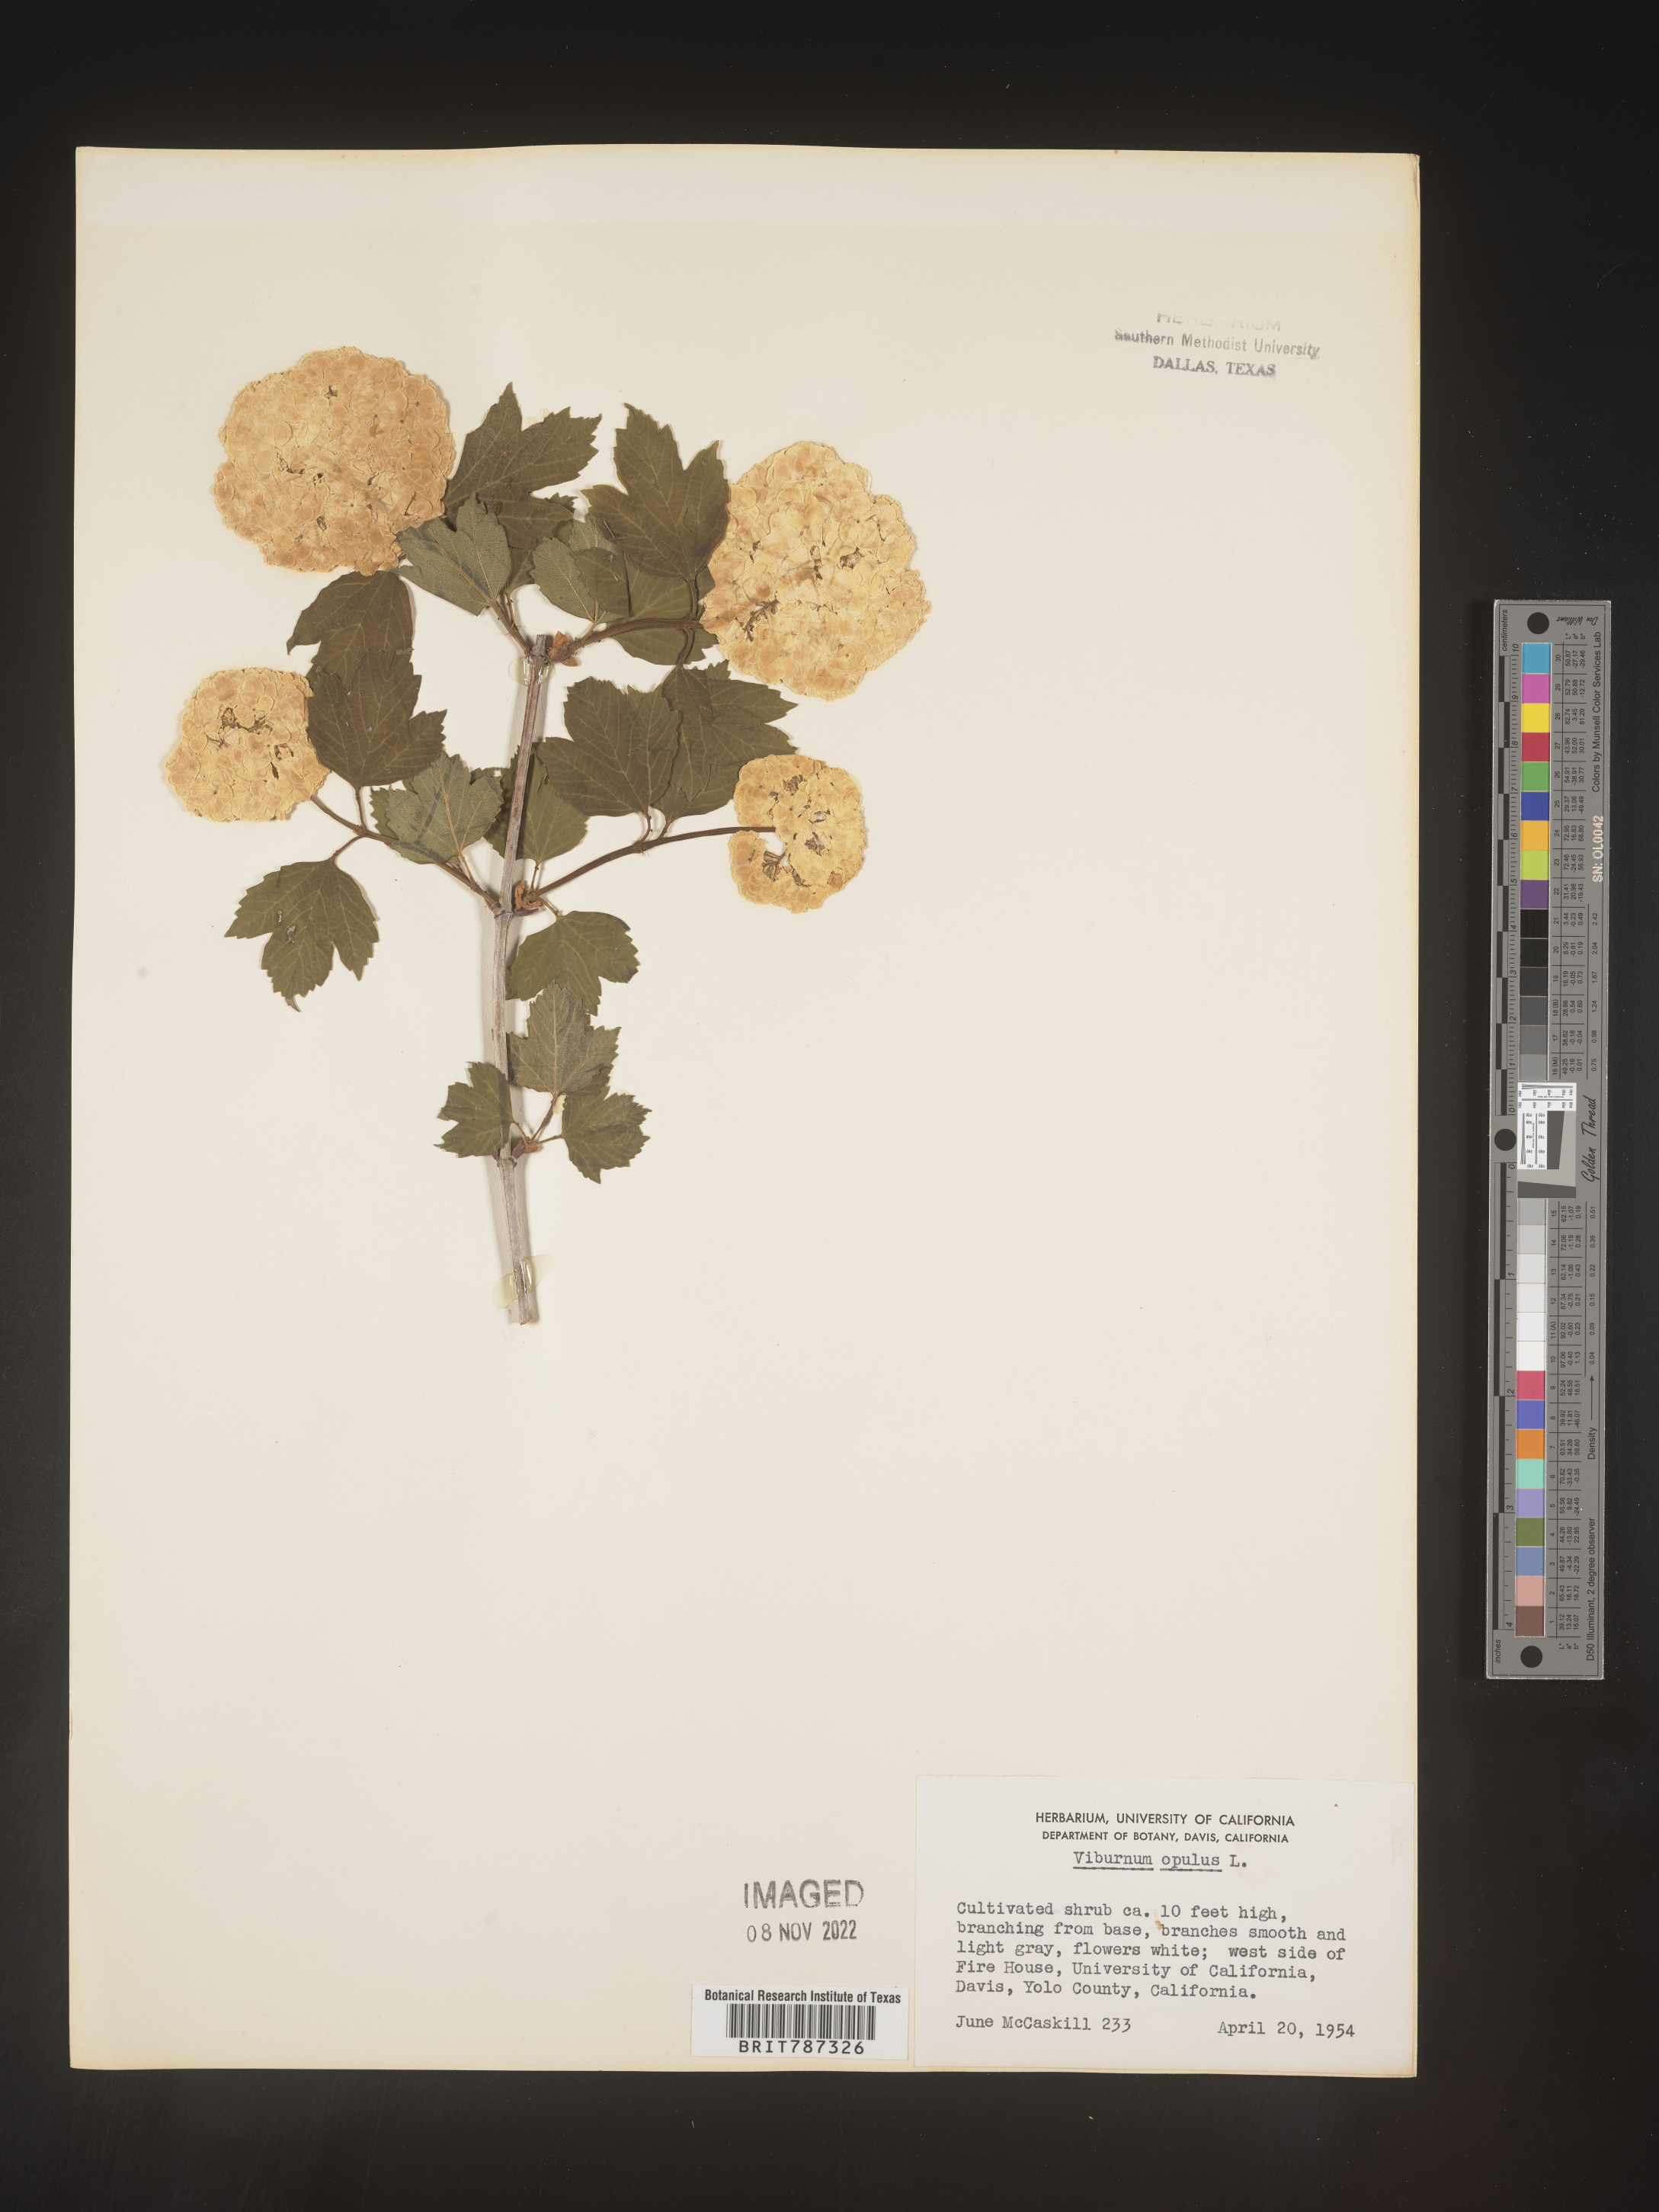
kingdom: Plantae
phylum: Tracheophyta
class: Magnoliopsida
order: Dipsacales
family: Viburnaceae
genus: Viburnum
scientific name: Viburnum
